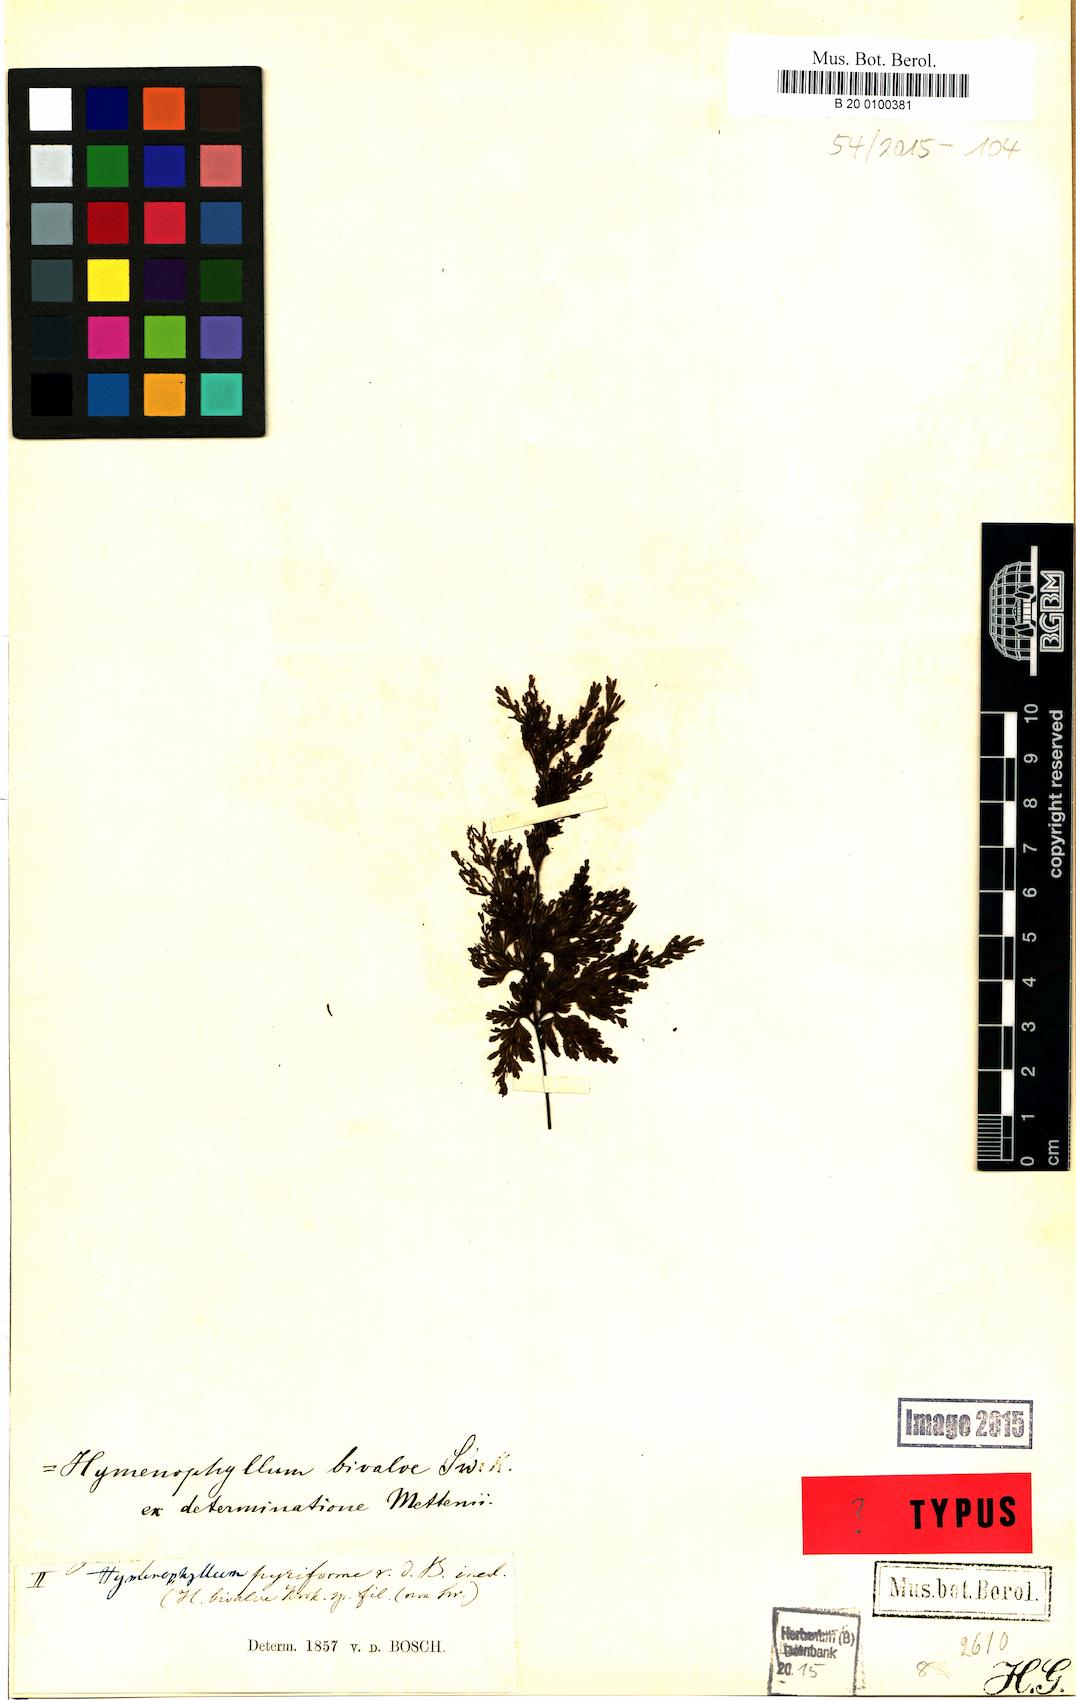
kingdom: Plantae
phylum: Tracheophyta
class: Polypodiopsida
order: Hymenophyllales
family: Hymenophyllaceae
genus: Hymenophyllum
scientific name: Hymenophyllum bivalve
